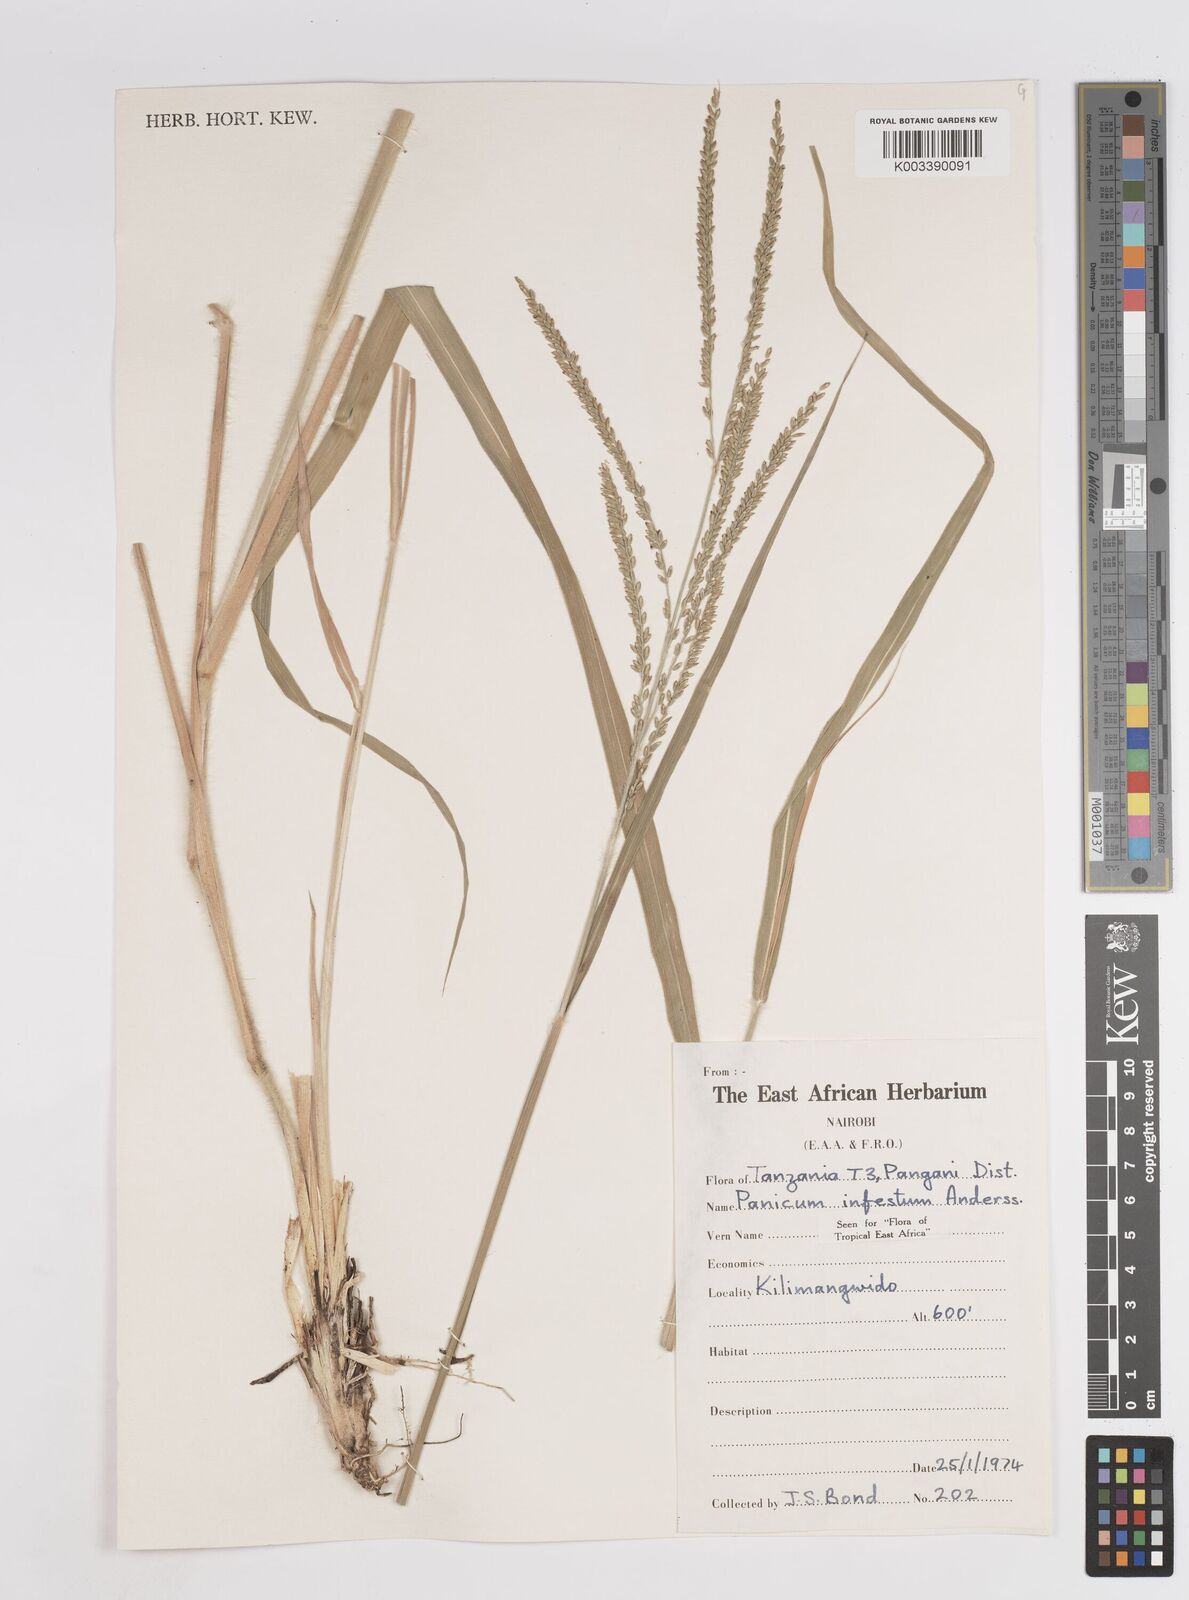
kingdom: Plantae
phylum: Tracheophyta
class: Liliopsida
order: Poales
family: Poaceae
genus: Megathyrsus
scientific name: Megathyrsus infestus
